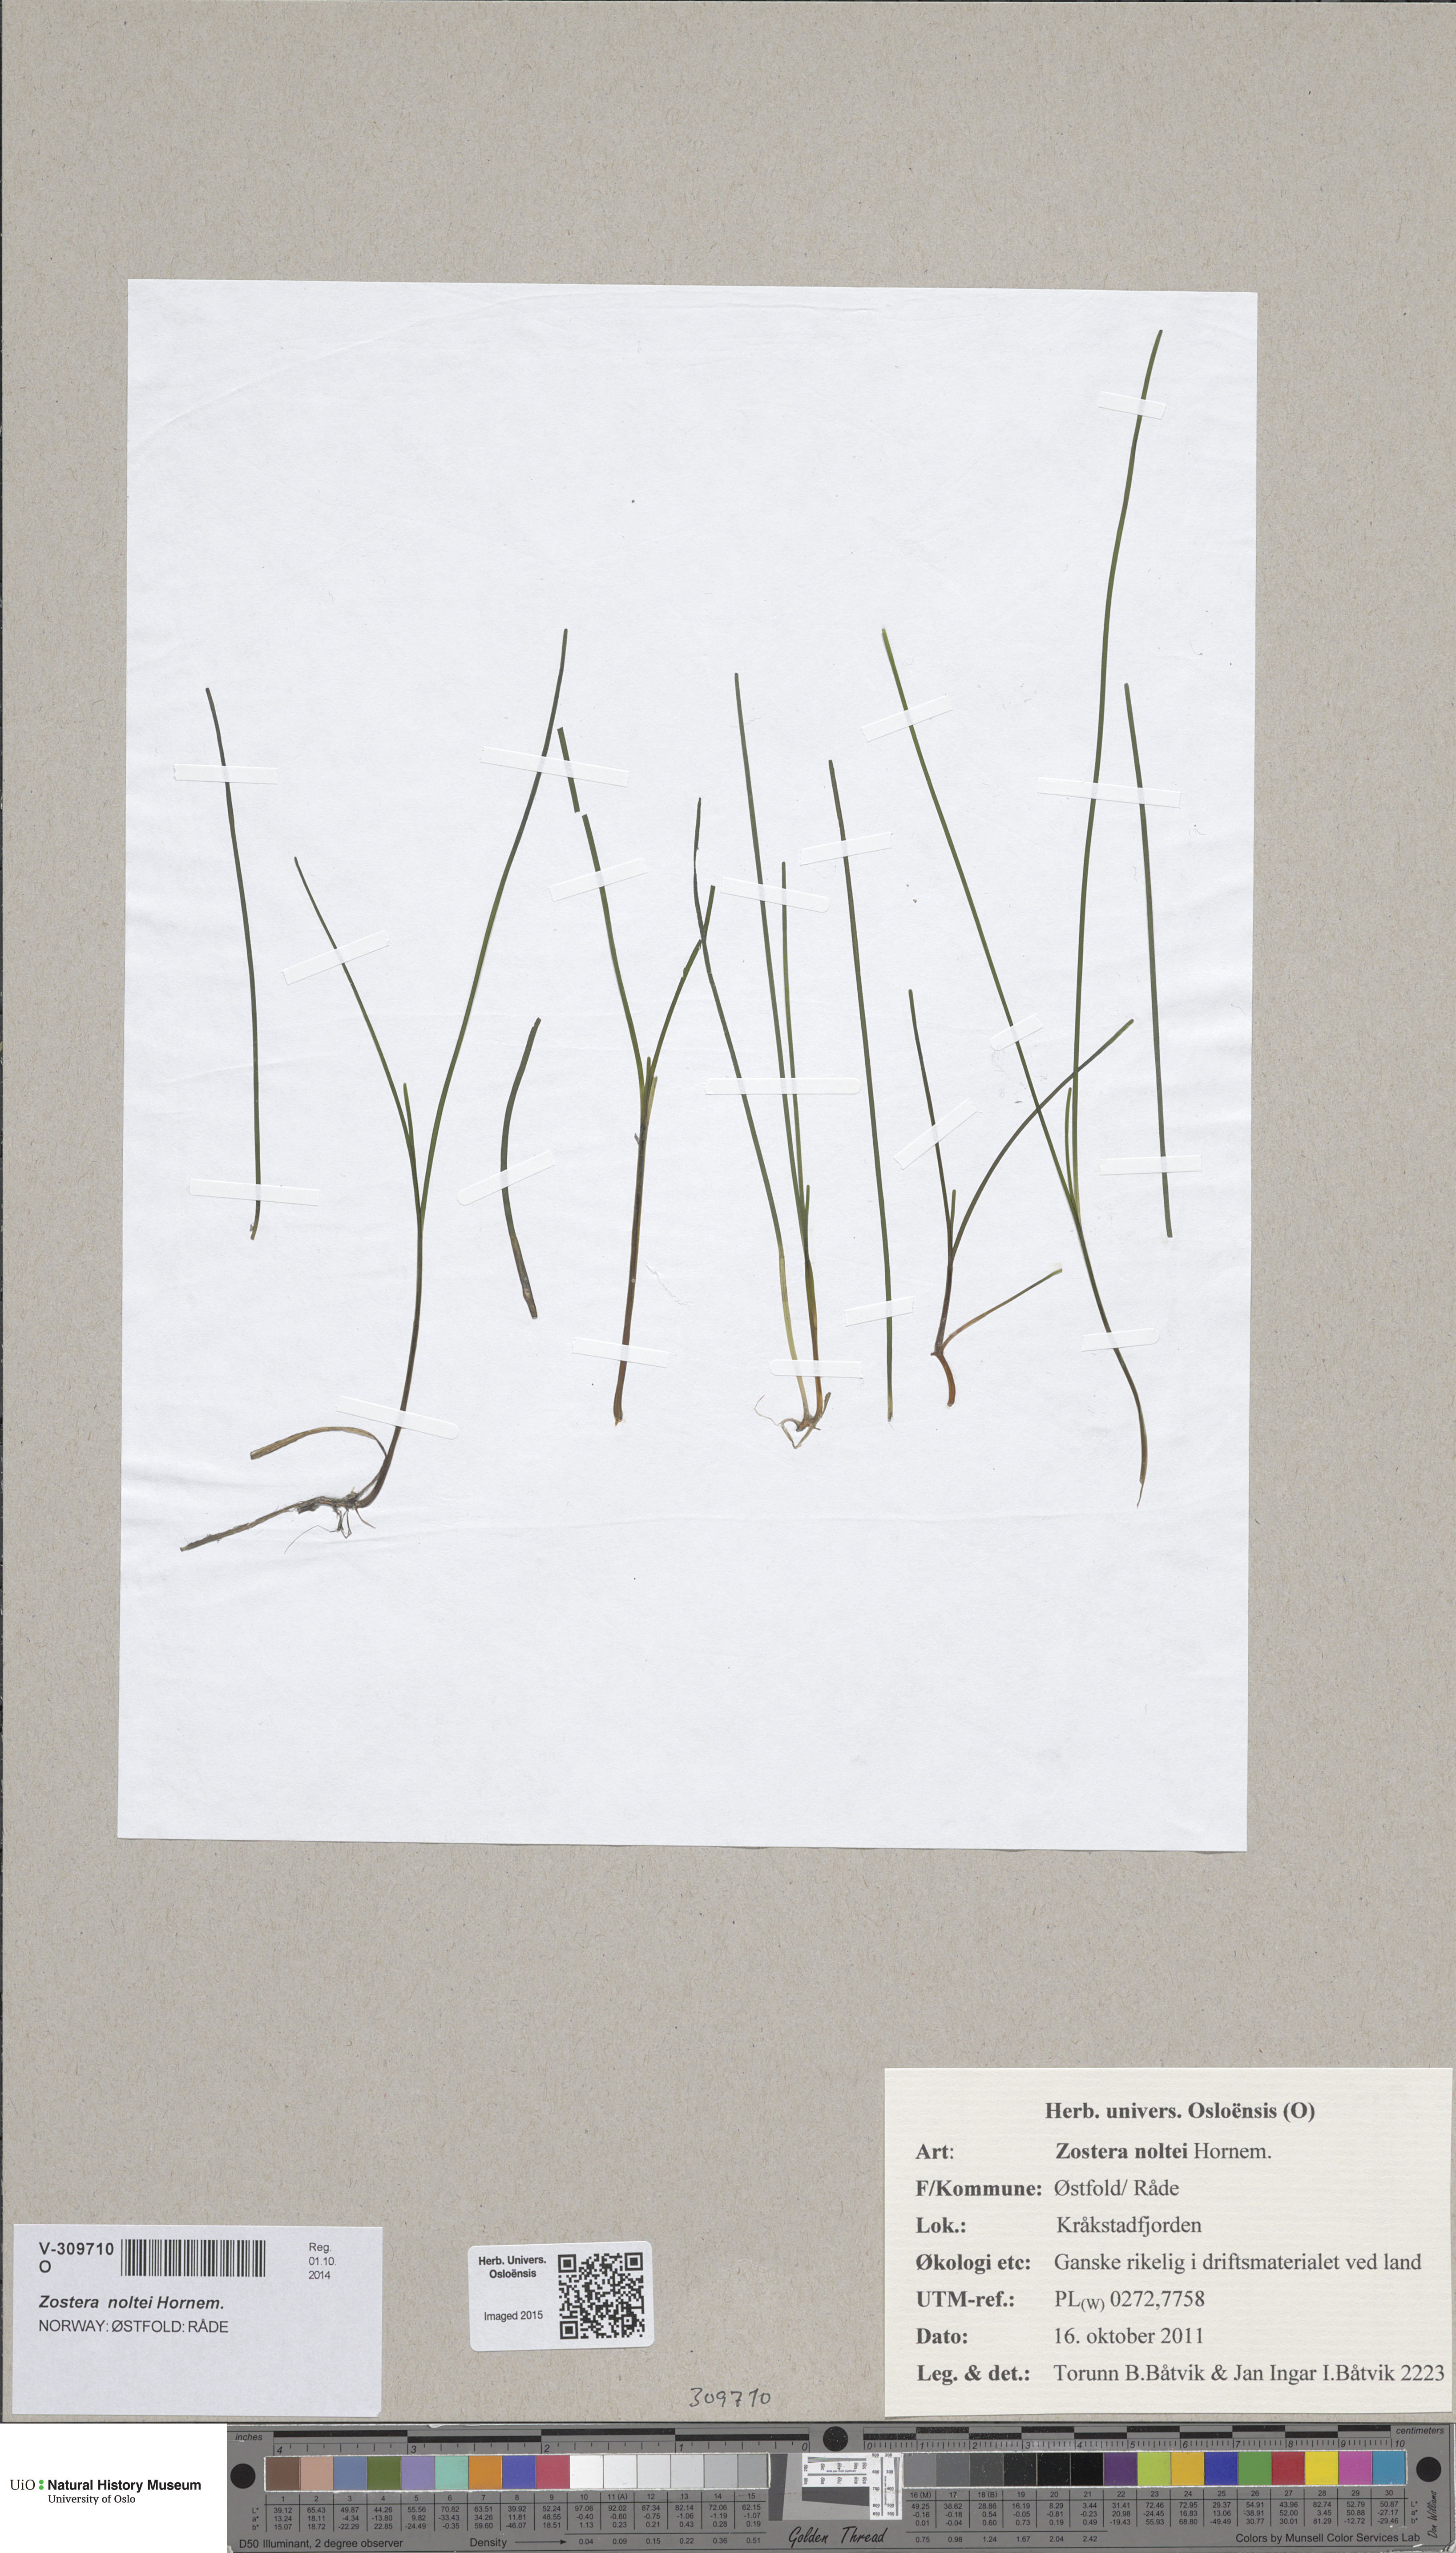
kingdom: Plantae
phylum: Tracheophyta
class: Liliopsida
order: Alismatales
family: Zosteraceae
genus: Zostera
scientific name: Zostera noltii
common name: Dwarf eelgrass
